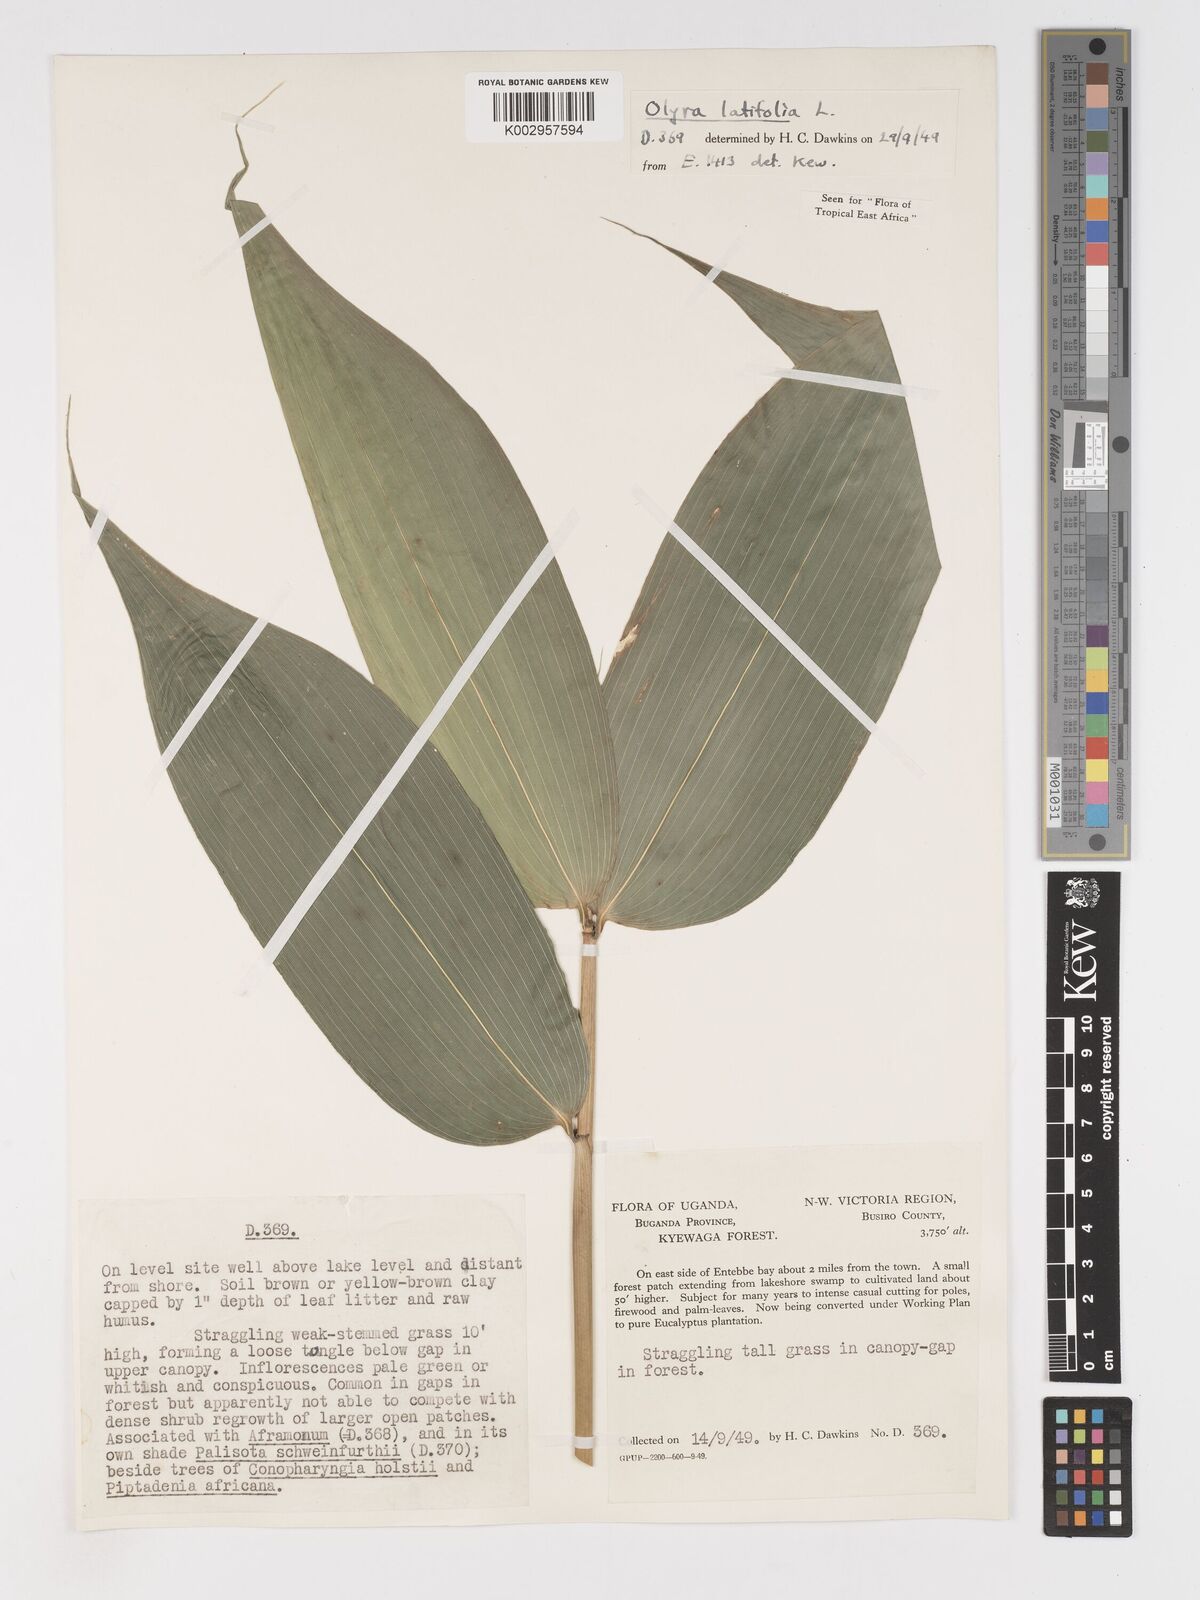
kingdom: Plantae
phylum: Tracheophyta
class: Liliopsida
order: Poales
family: Poaceae
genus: Olyra
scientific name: Olyra latifolia
